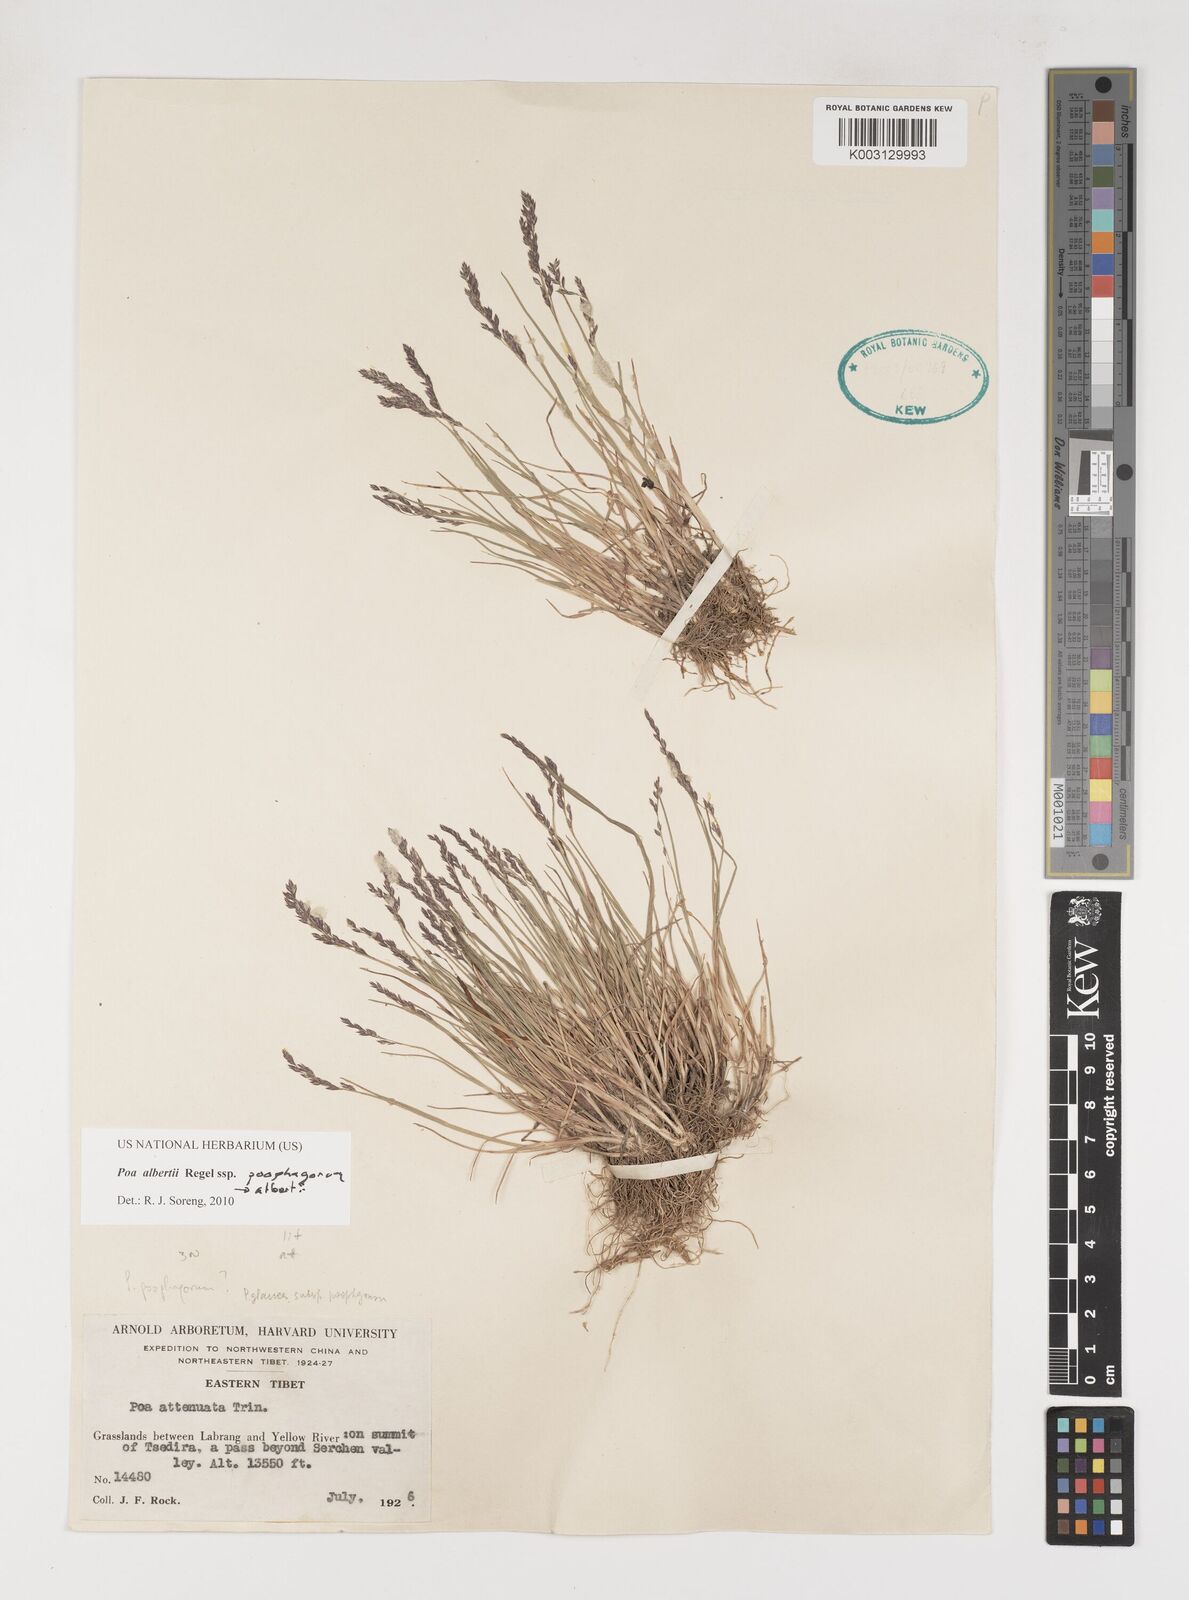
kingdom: Plantae
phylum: Tracheophyta
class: Liliopsida
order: Poales
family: Poaceae
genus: Poa
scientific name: Poa alberti
